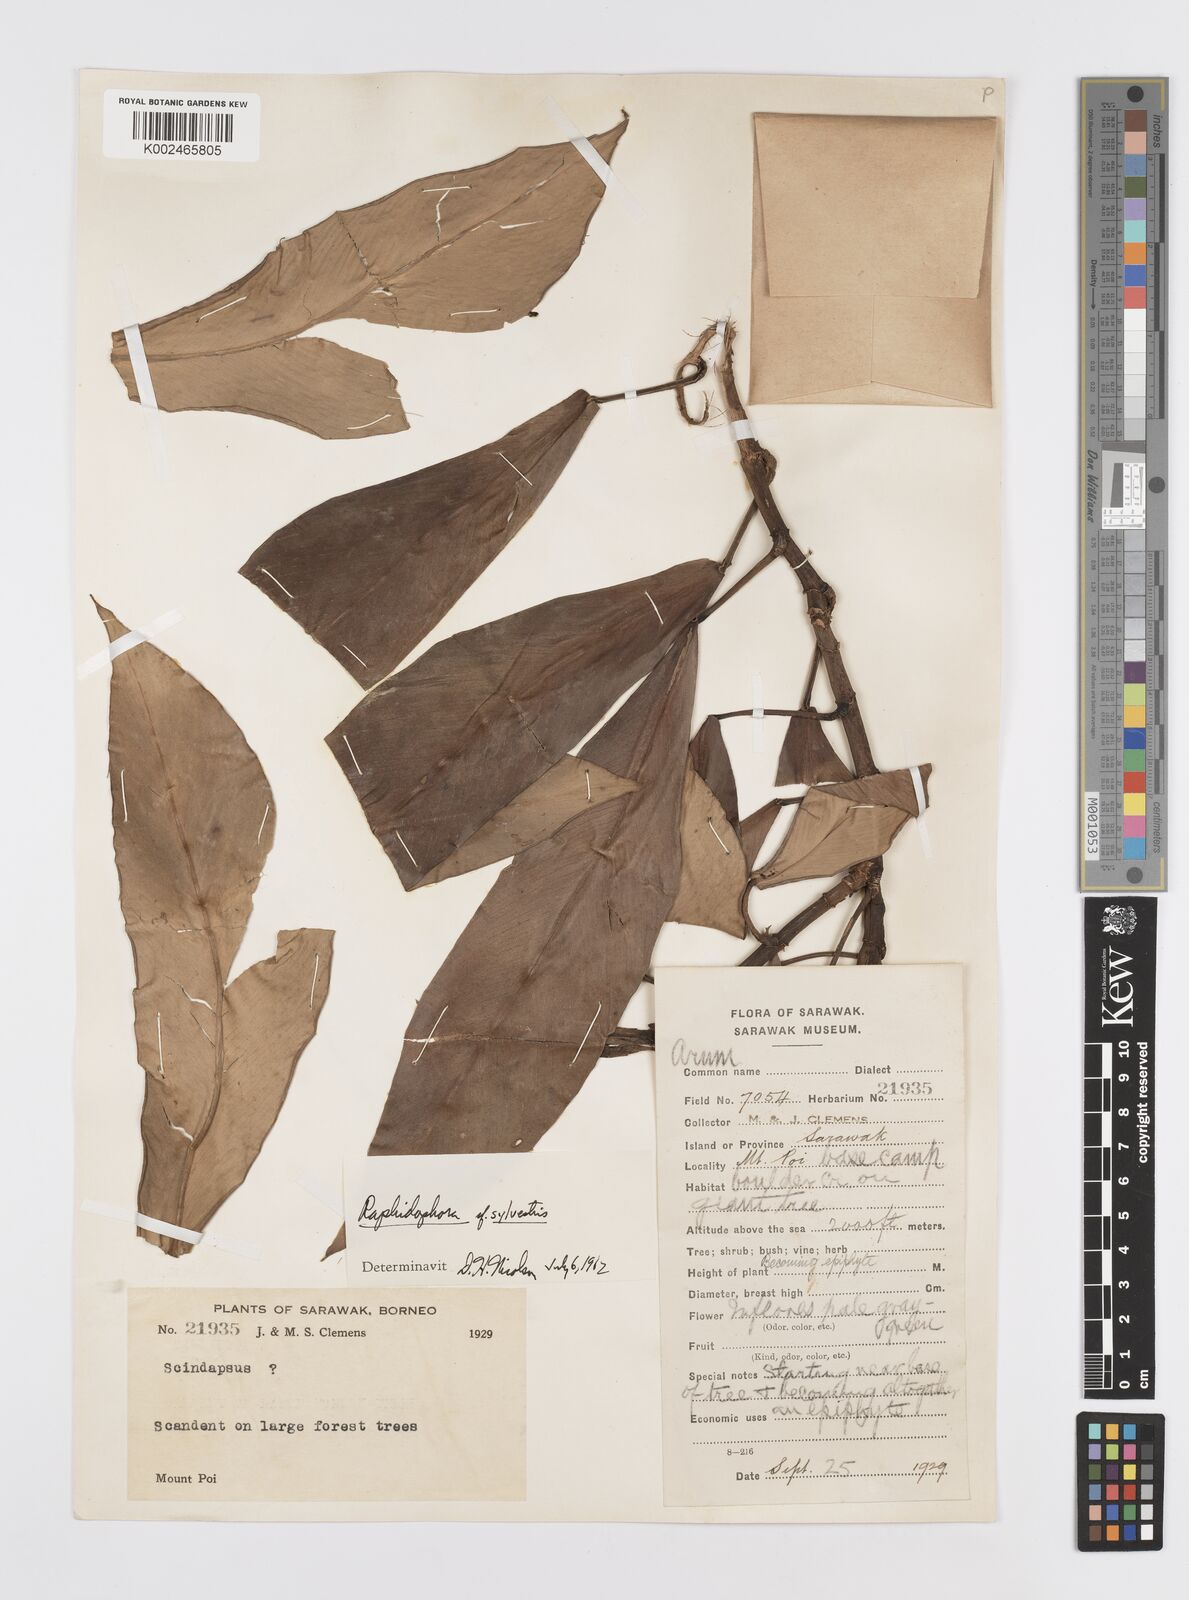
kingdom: Plantae
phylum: Tracheophyta
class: Liliopsida
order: Alismatales
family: Araceae
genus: Rhaphidophora
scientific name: Rhaphidophora sylvestris
